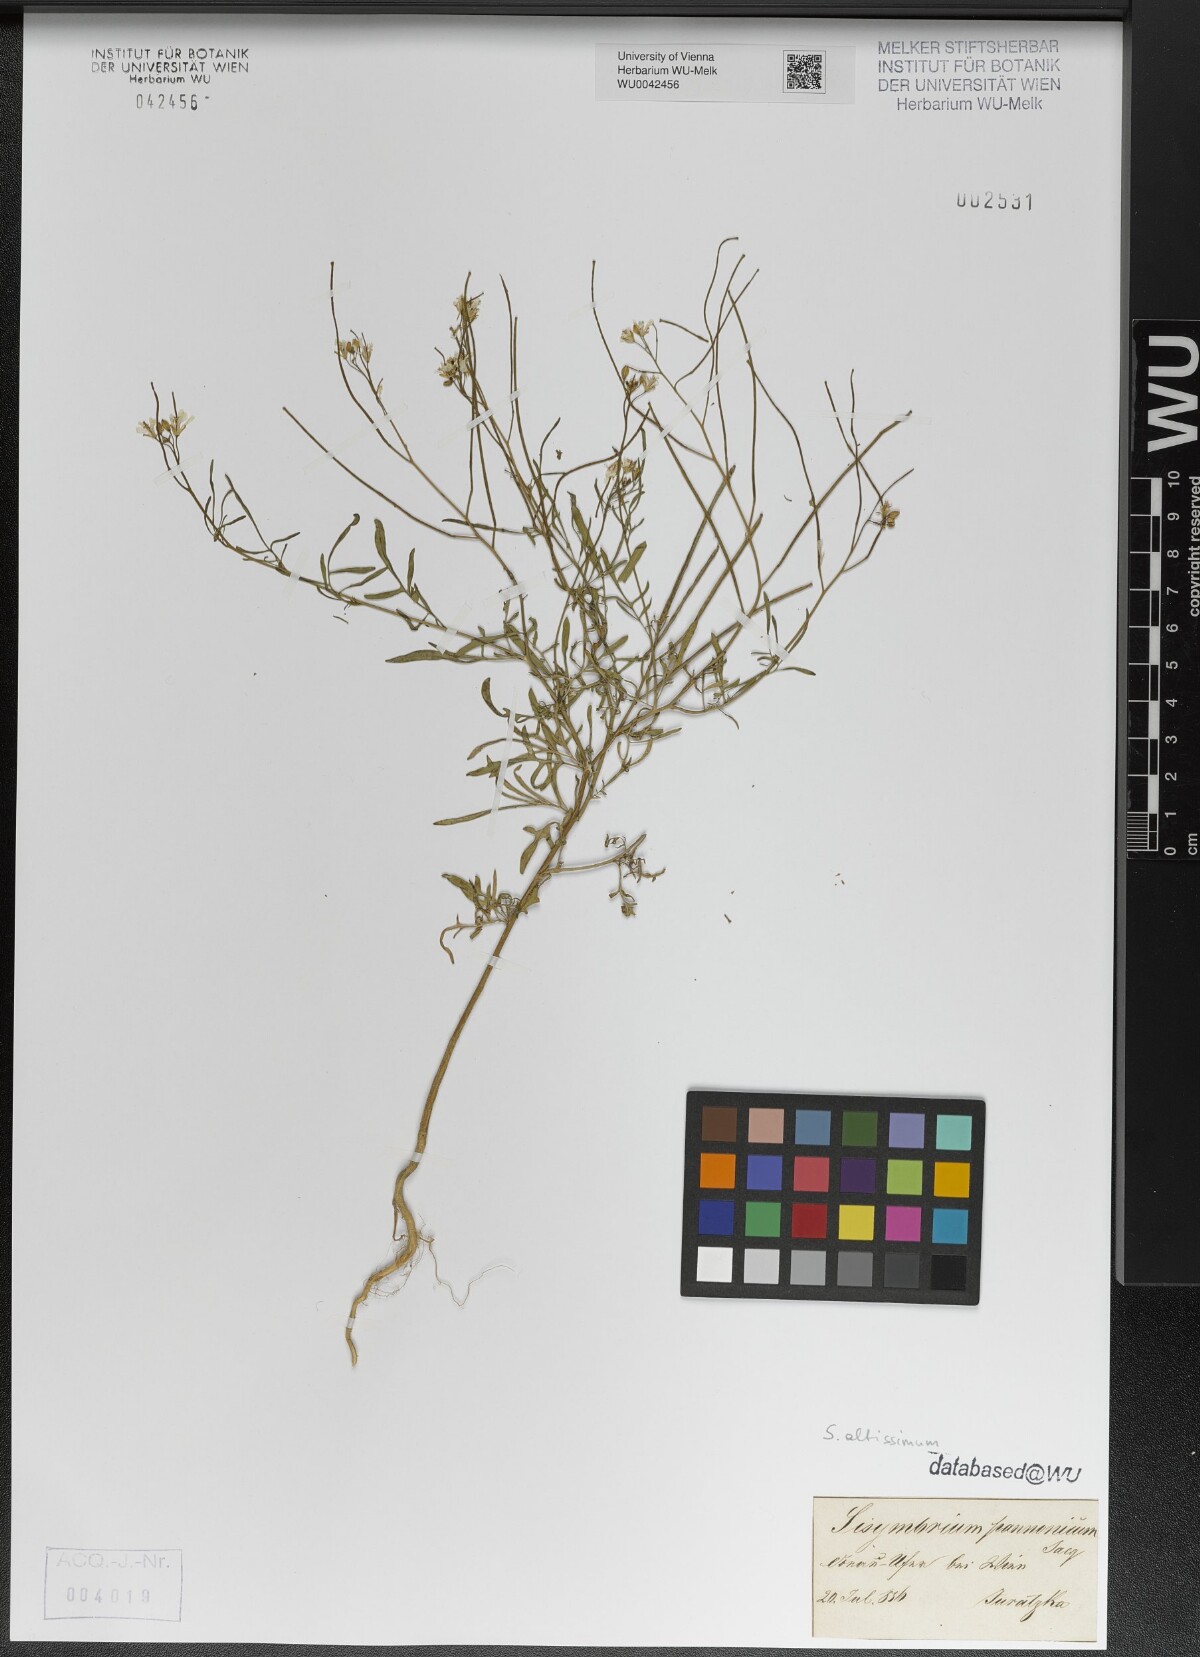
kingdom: Plantae
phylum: Tracheophyta
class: Magnoliopsida
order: Brassicales
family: Brassicaceae
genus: Sisymbrium
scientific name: Sisymbrium altissimum
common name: Tall rocket
